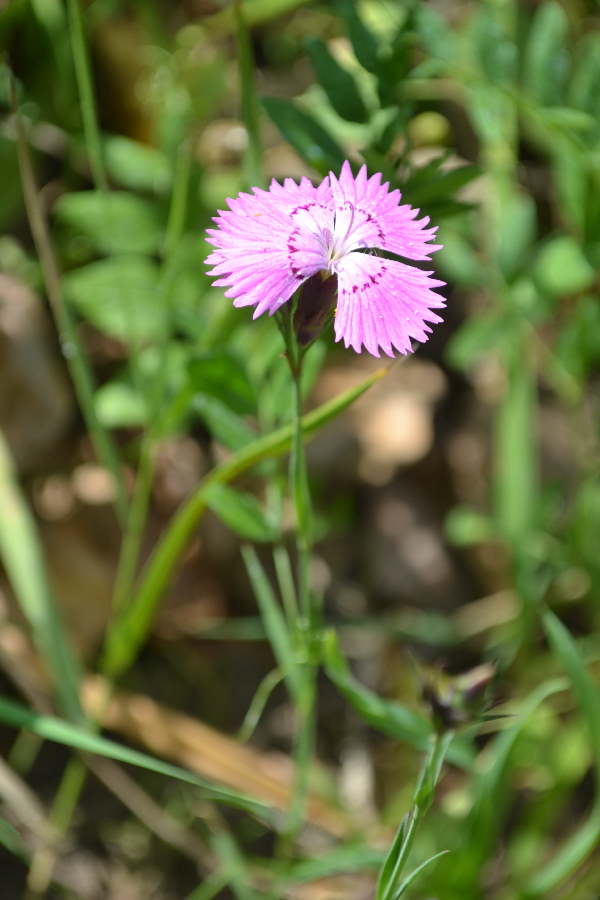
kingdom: Plantae
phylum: Tracheophyta
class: Magnoliopsida
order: Caryophyllales
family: Caryophyllaceae
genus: Dianthus
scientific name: Dianthus deltoides
